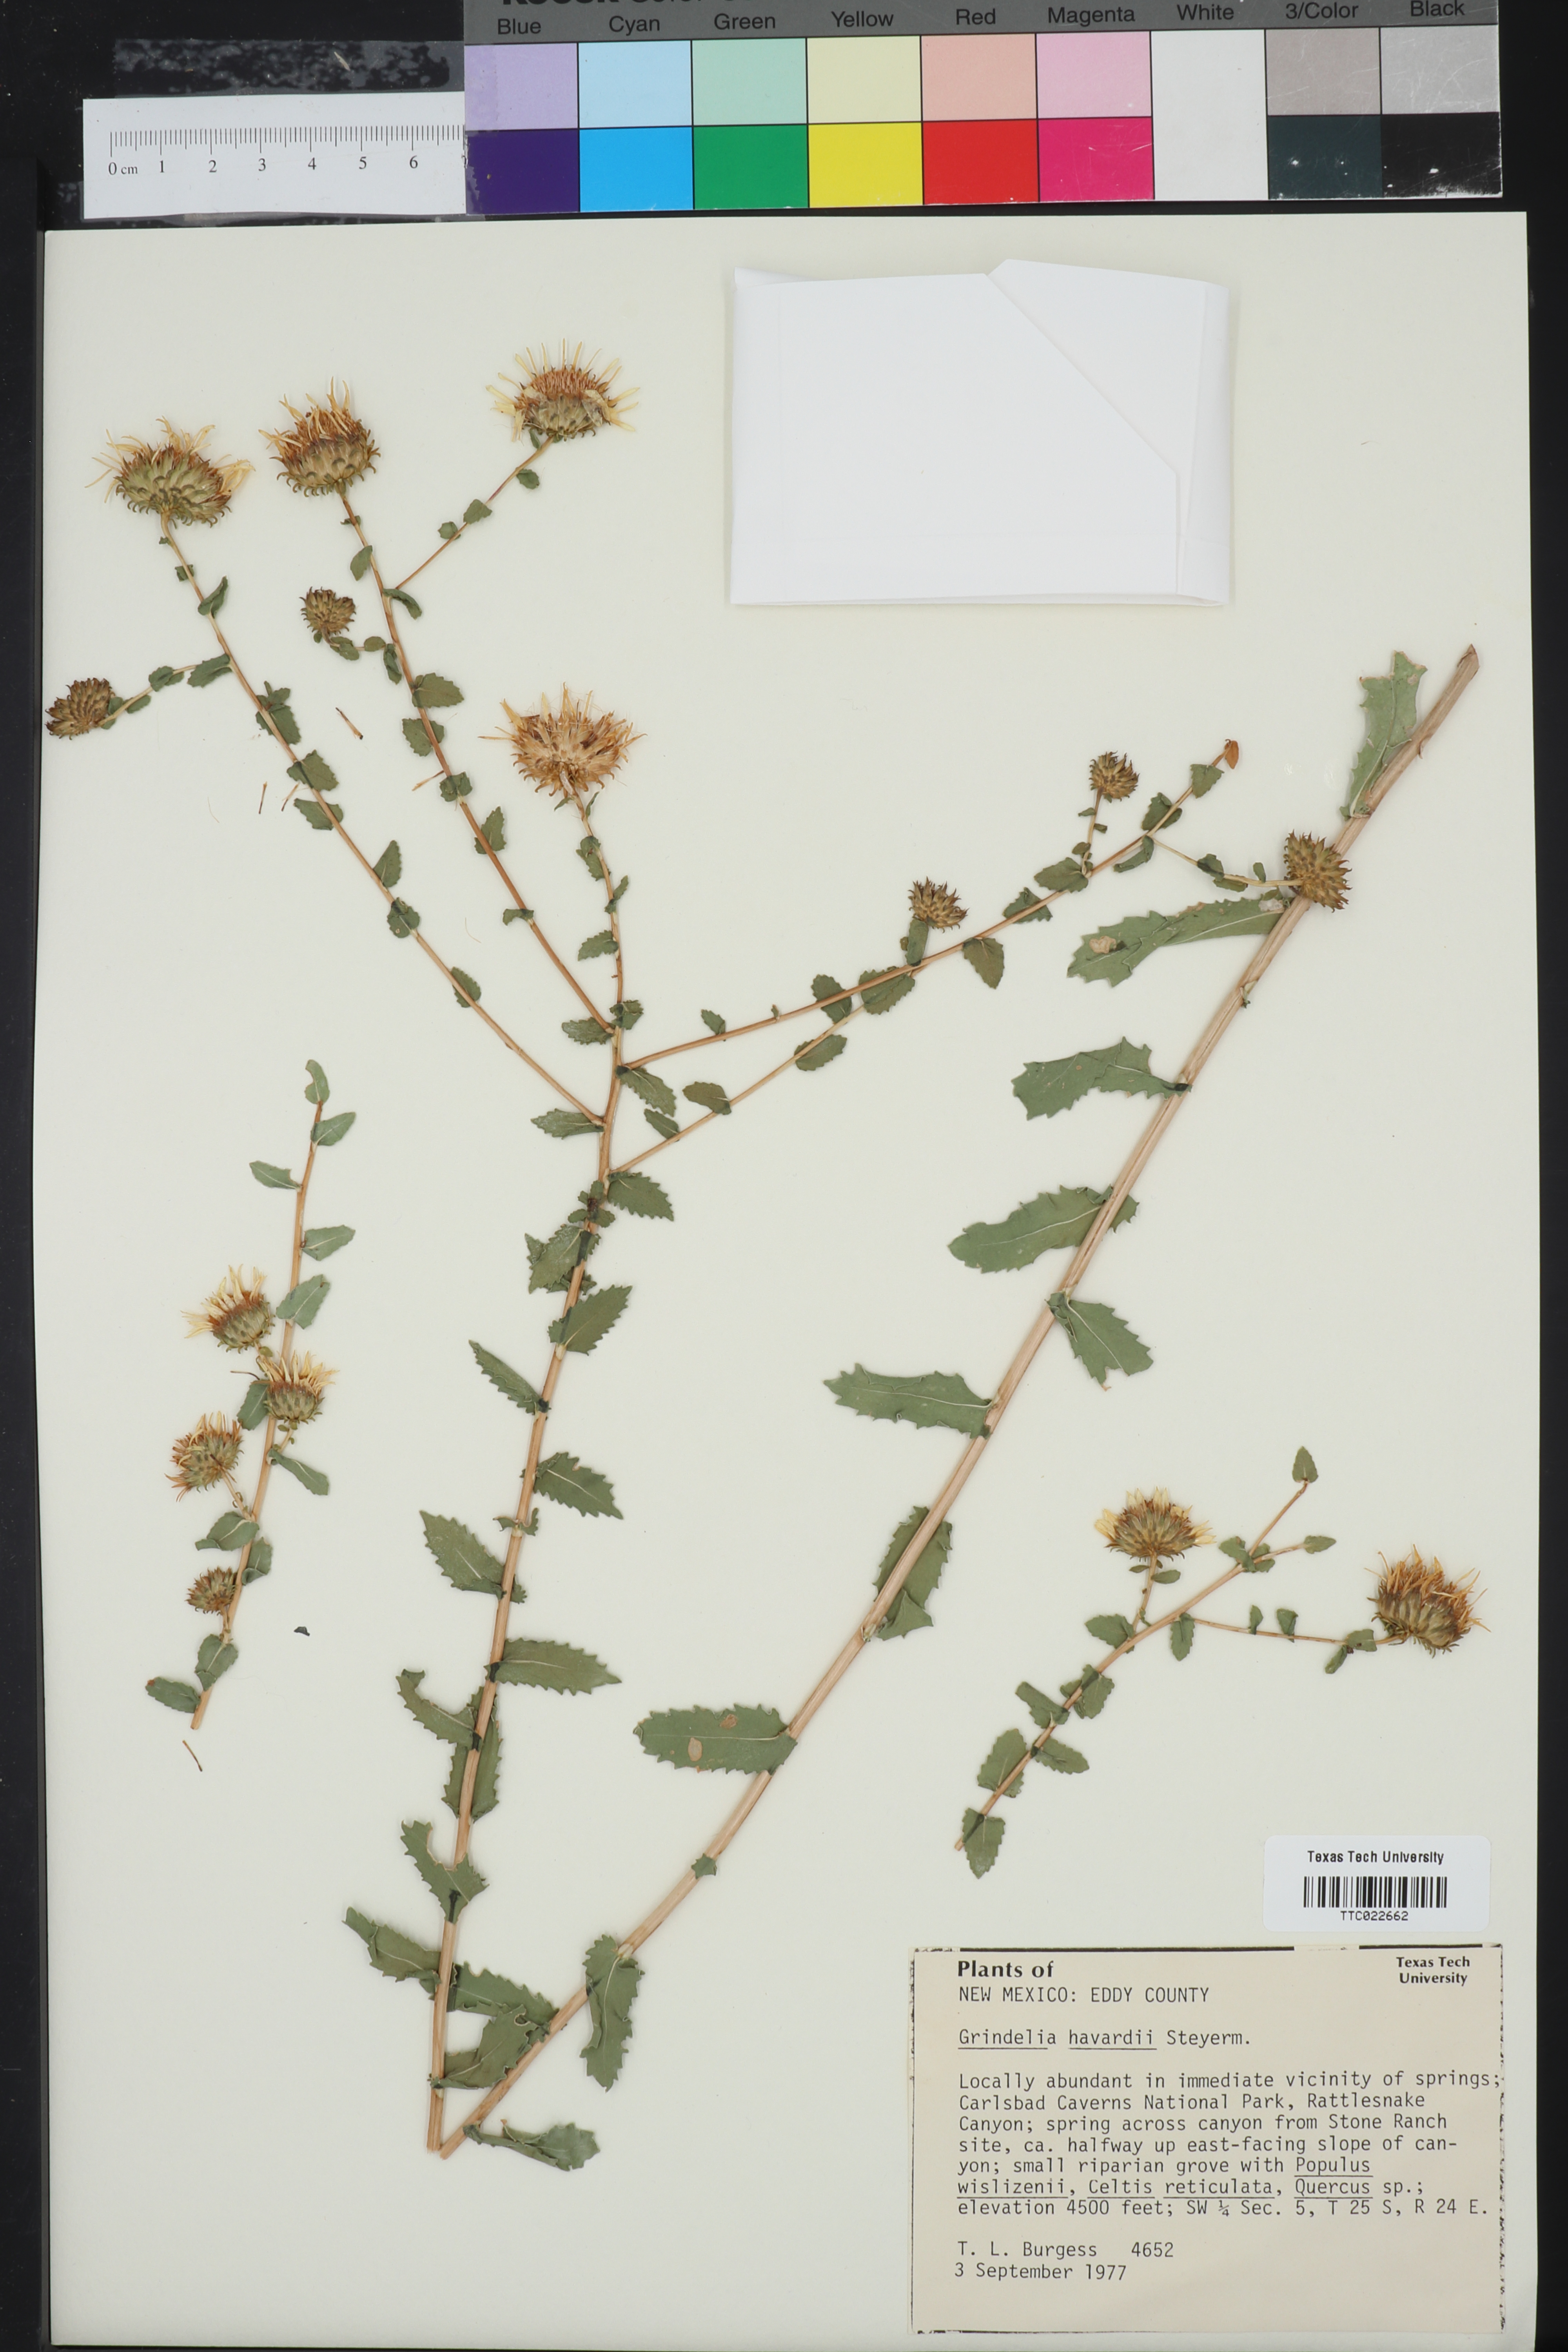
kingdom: Plantae
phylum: Tracheophyta
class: Magnoliopsida
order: Asterales
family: Asteraceae
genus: Grindelia
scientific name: Grindelia havardii
